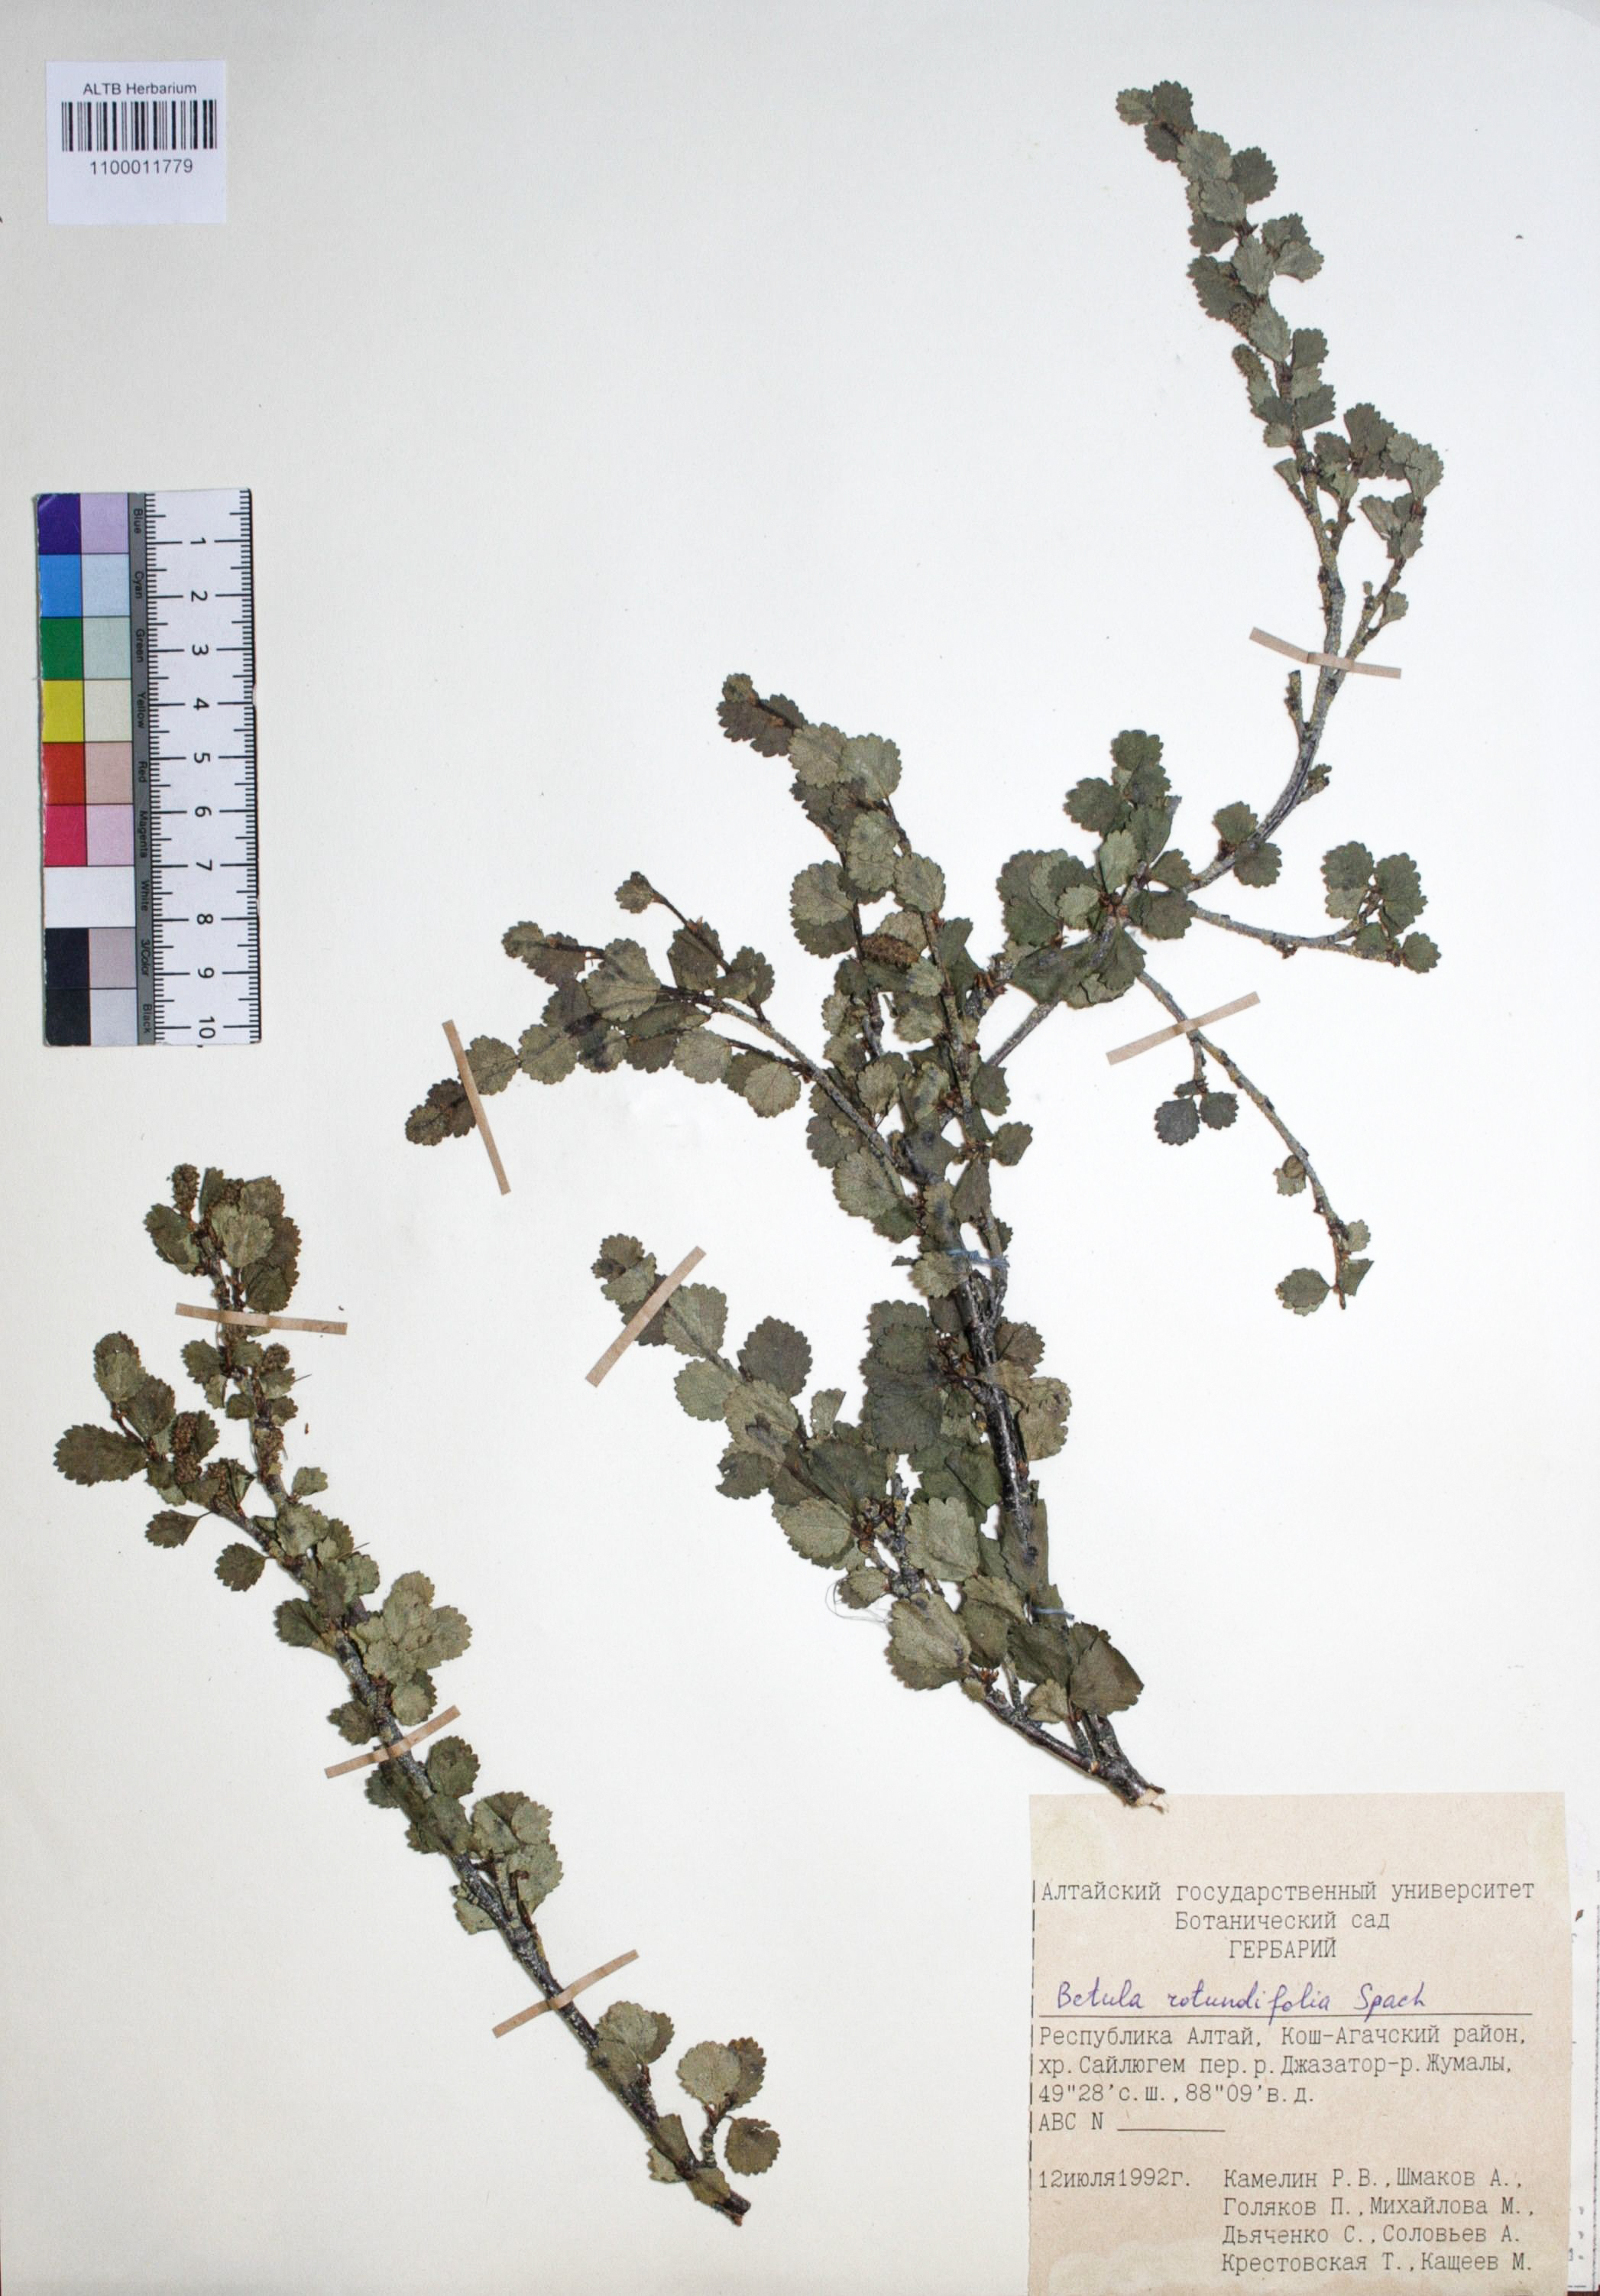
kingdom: Plantae
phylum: Tracheophyta
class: Magnoliopsida
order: Fagales
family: Betulaceae
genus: Betula
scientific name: Betula glandulosa
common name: Dwarf birch
